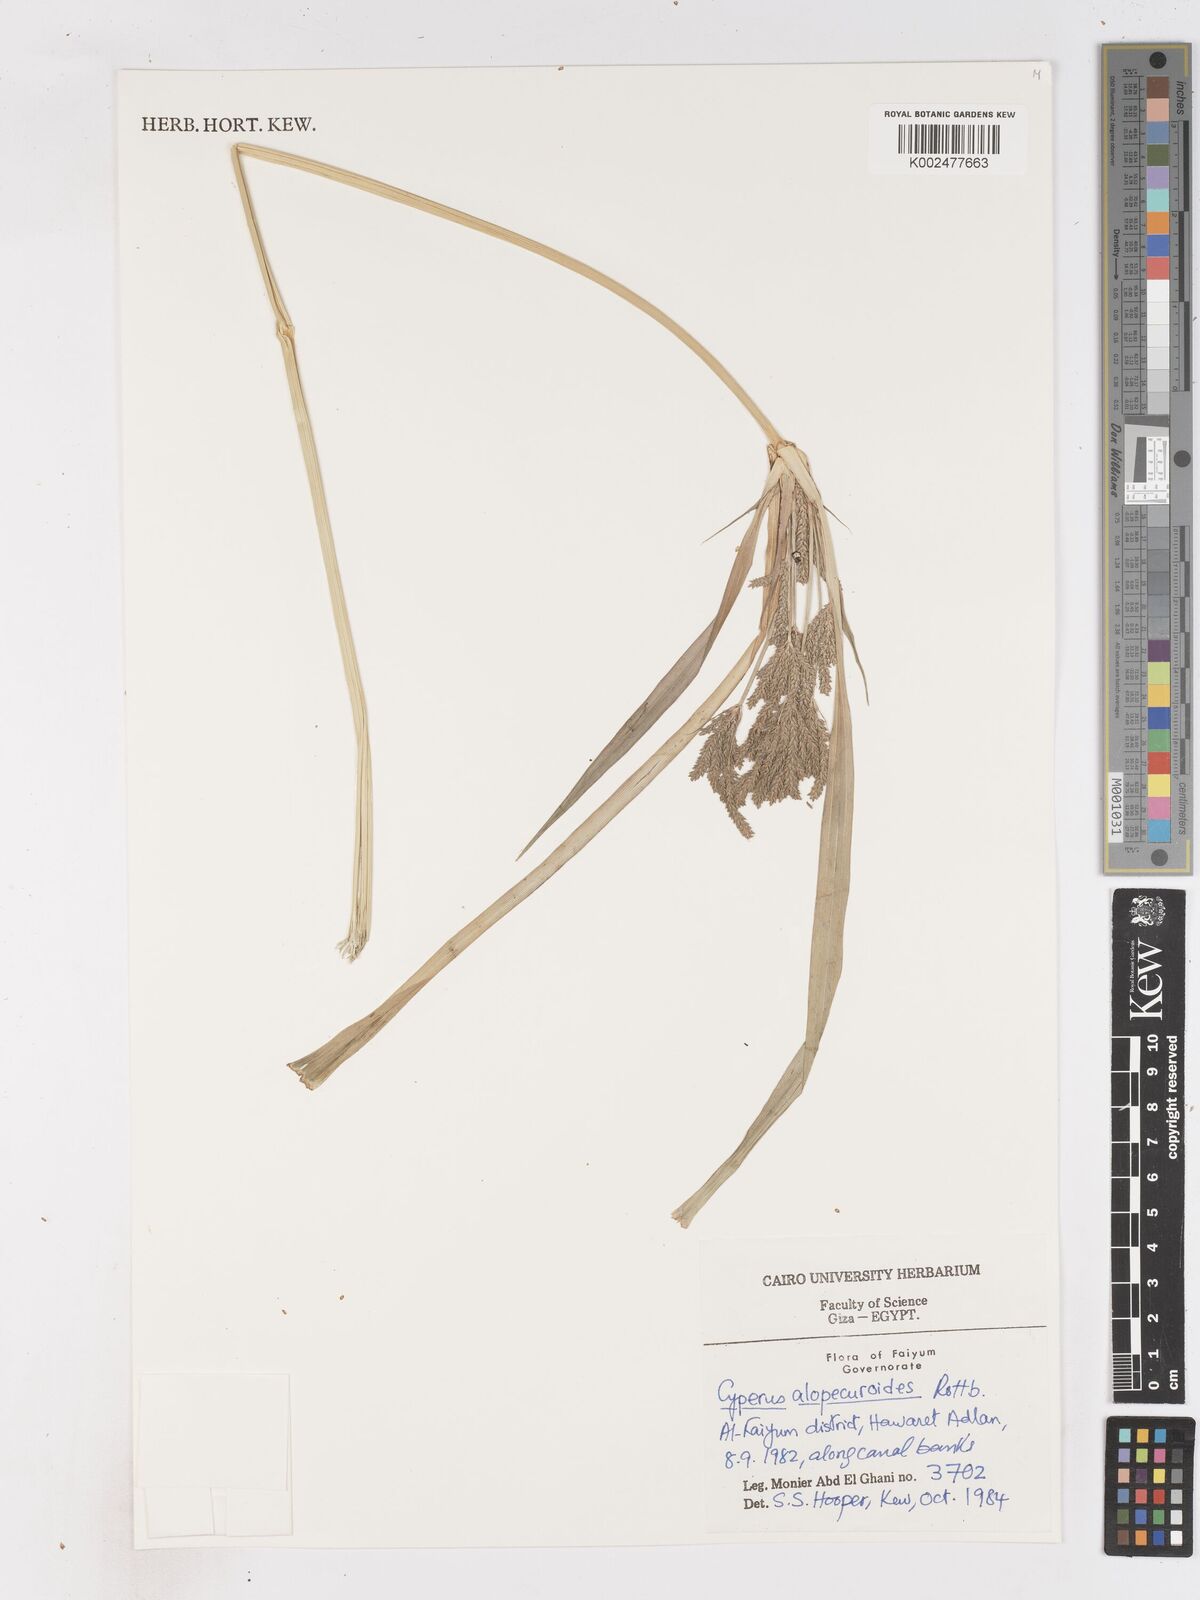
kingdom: Plantae
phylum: Tracheophyta
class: Liliopsida
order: Poales
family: Cyperaceae
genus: Cyperus
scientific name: Cyperus alopecuroides
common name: Foxtail flatsedge
